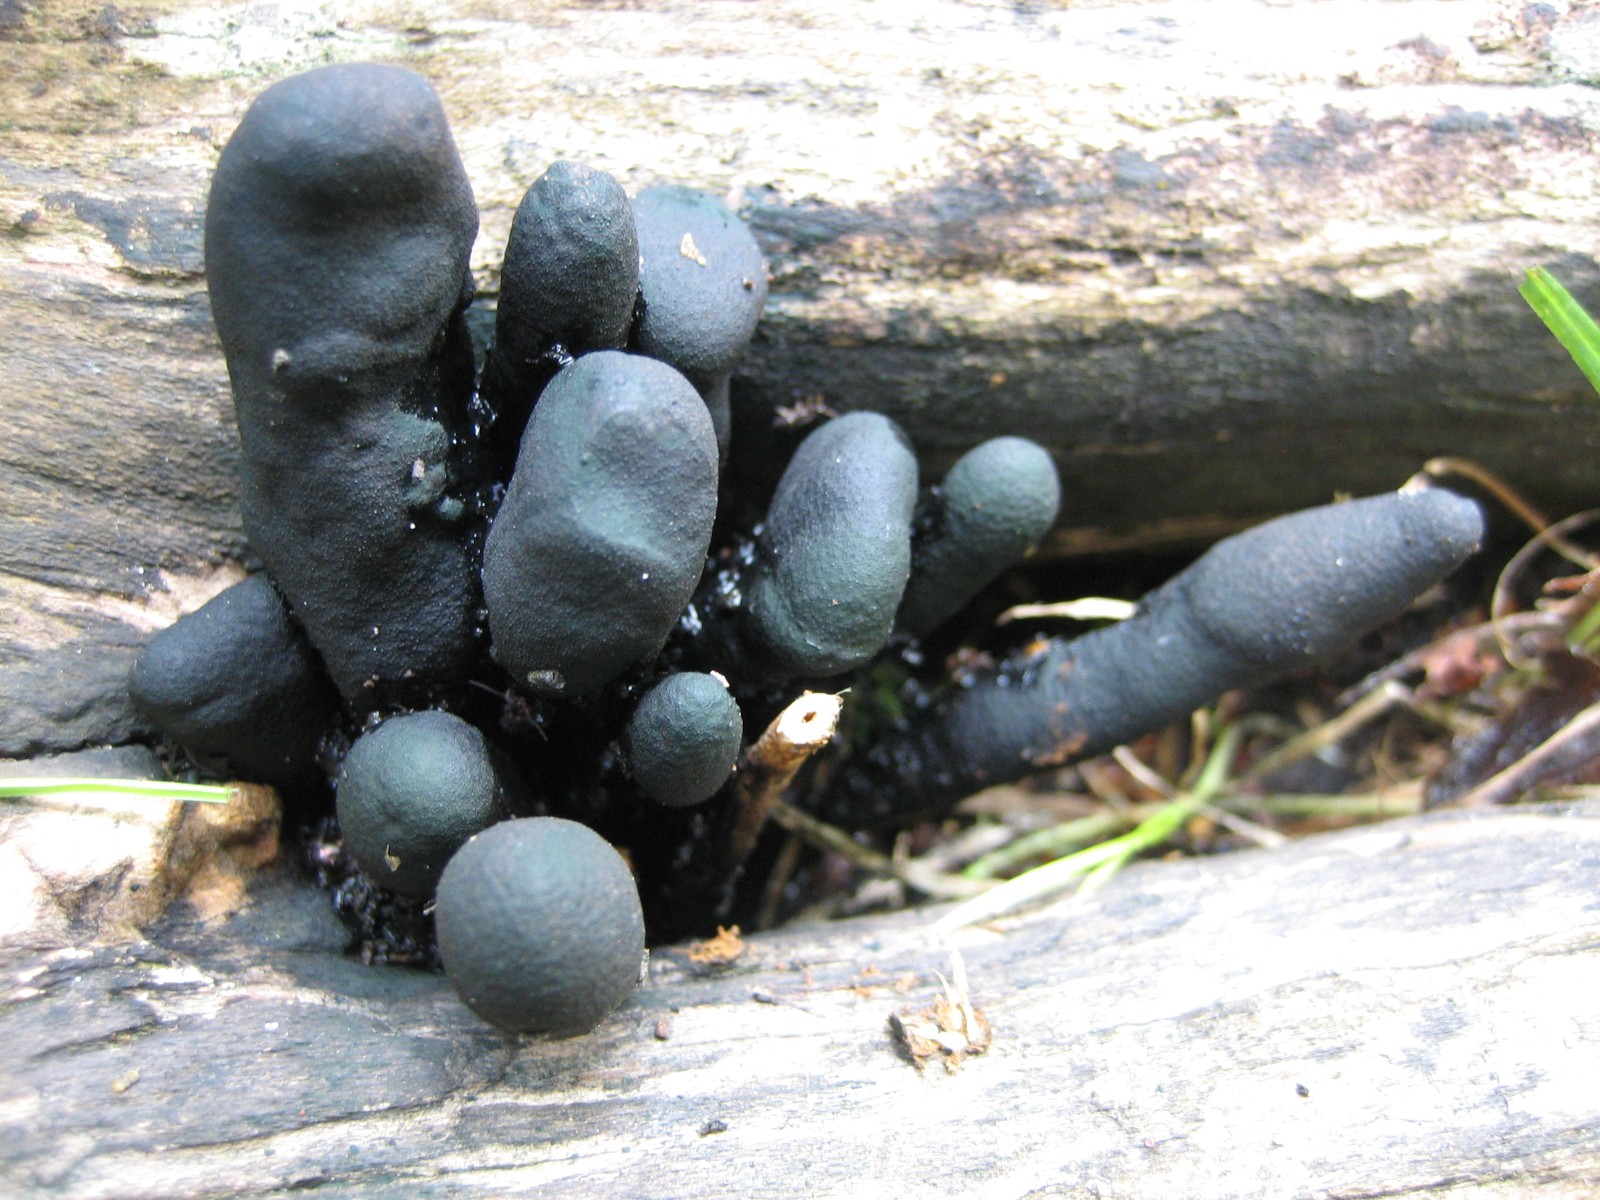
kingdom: Fungi
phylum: Ascomycota
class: Sordariomycetes
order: Xylariales
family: Xylariaceae
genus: Xylaria
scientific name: Xylaria polymorpha
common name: kølle-stødsvamp
